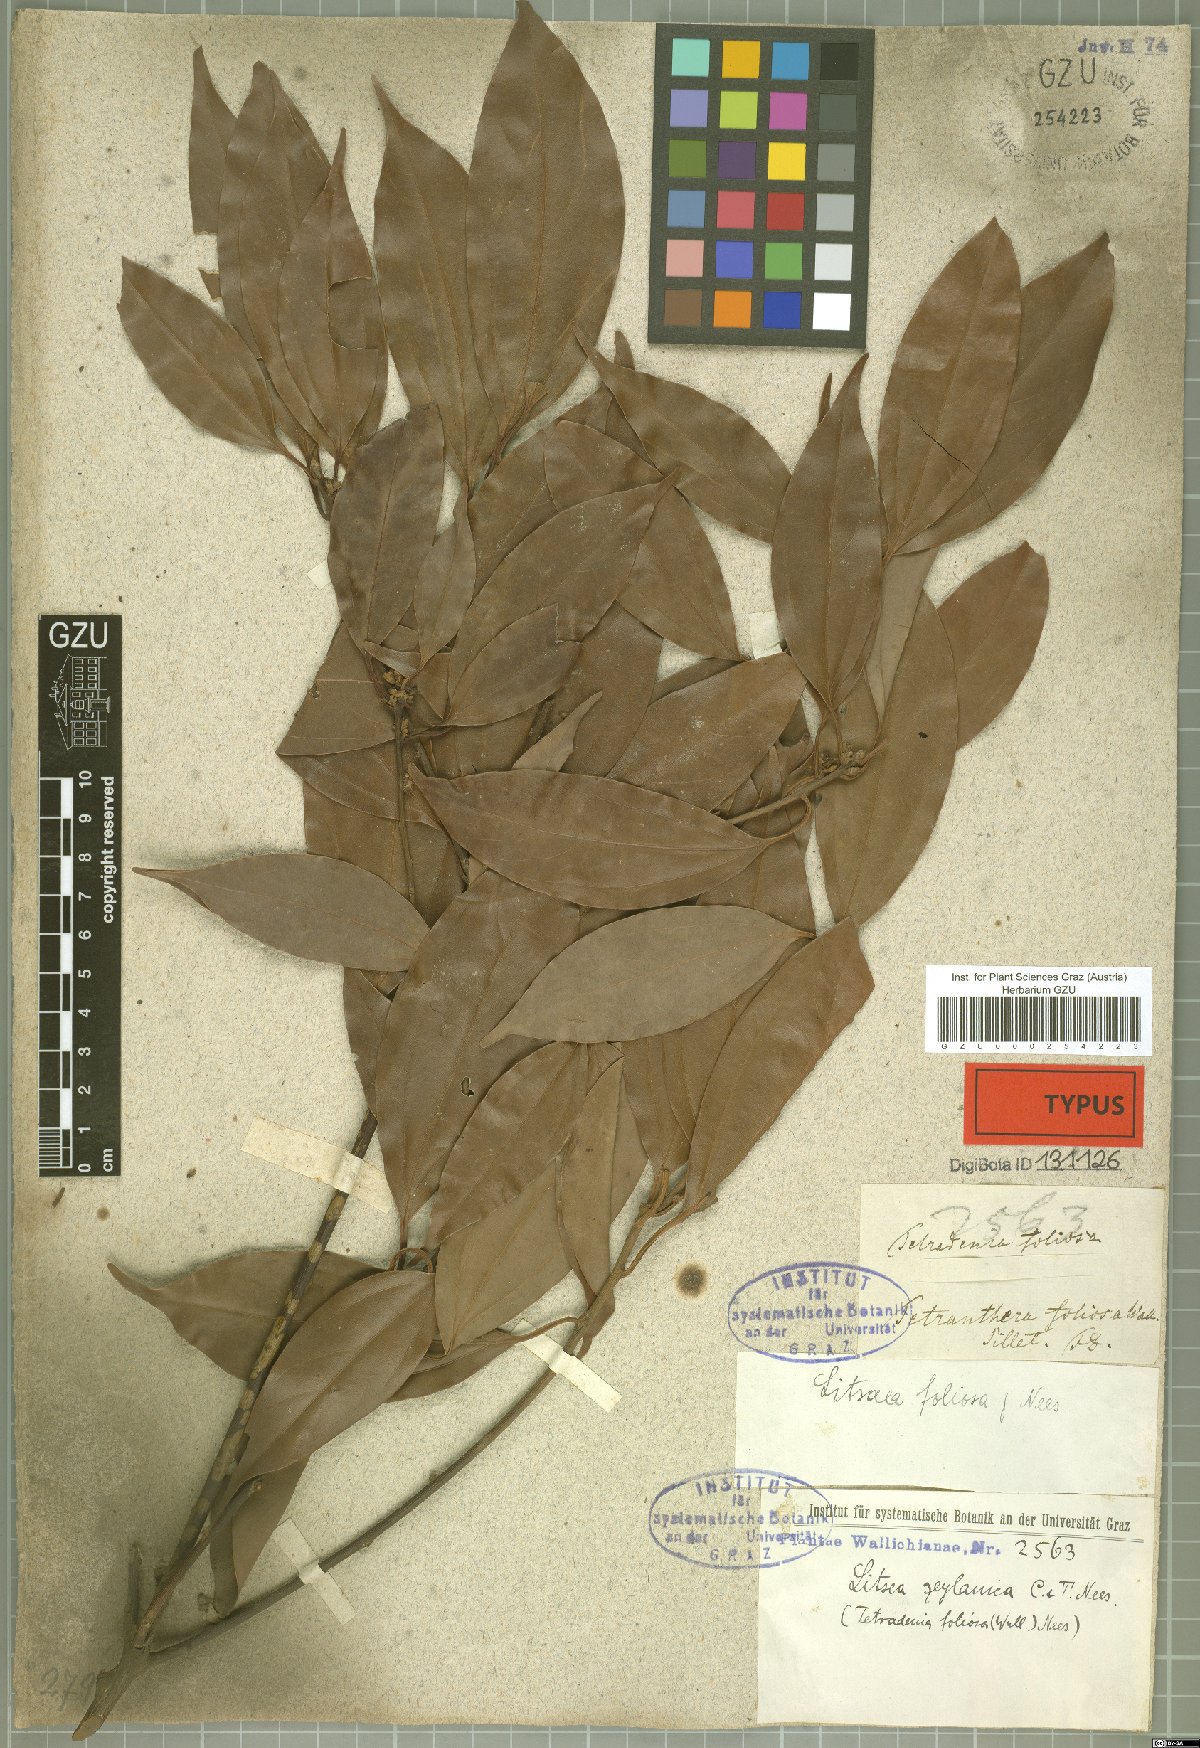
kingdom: Plantae
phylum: Tracheophyta
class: Magnoliopsida
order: Laurales
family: Lauraceae
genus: Neolitsea
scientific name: Neolitsea foliosa
